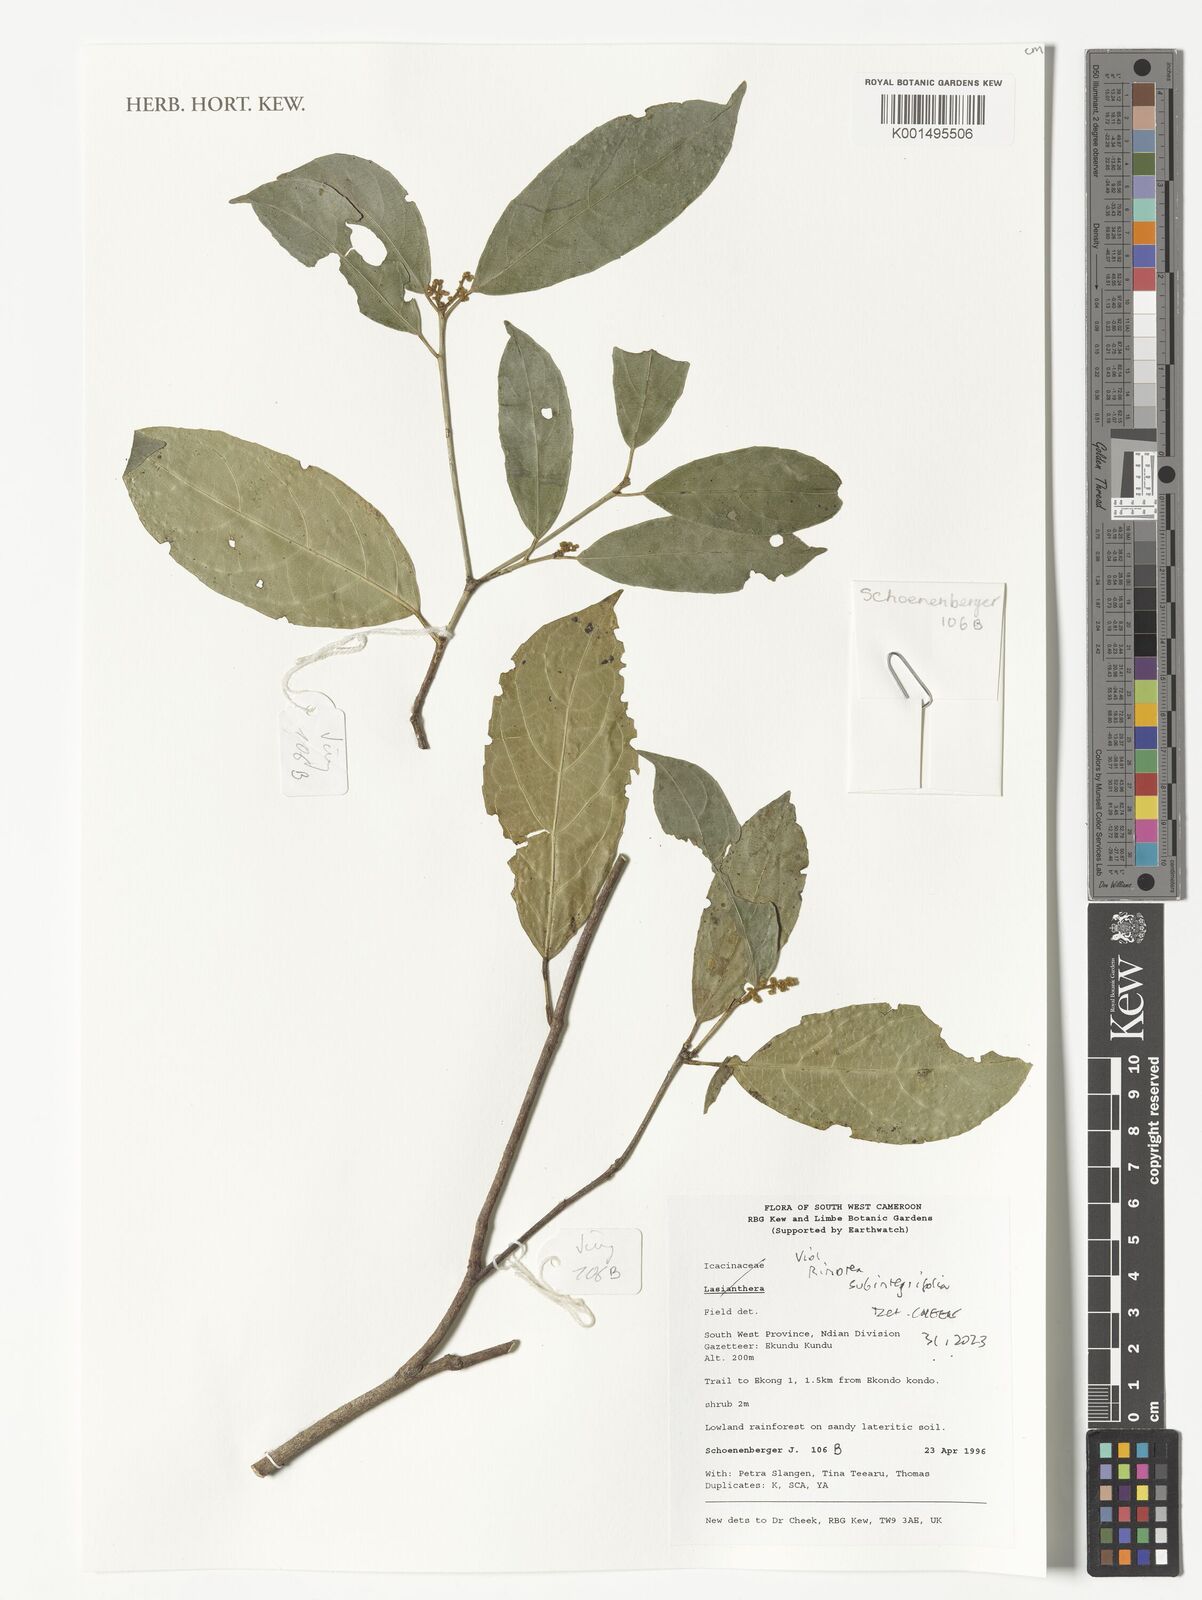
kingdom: Plantae
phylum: Tracheophyta
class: Magnoliopsida
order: Malpighiales
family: Violaceae
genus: Rinorea
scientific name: Rinorea subintegrifolia
